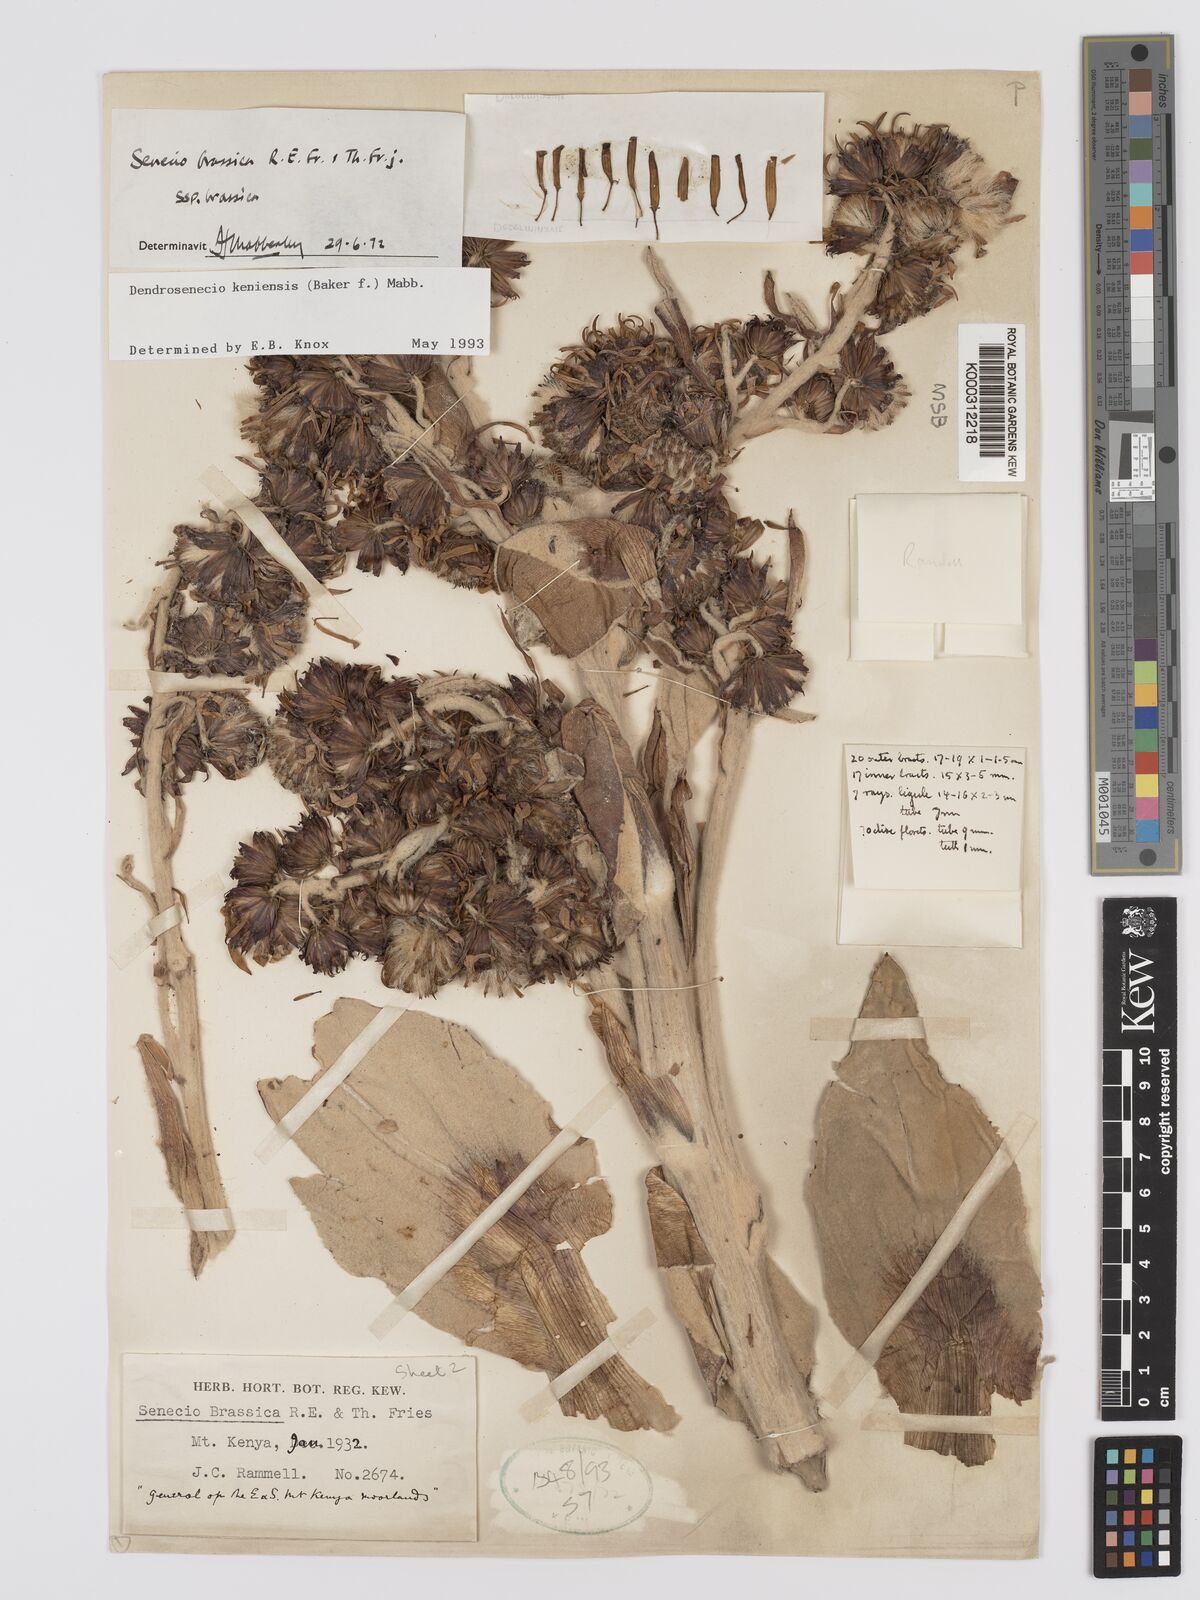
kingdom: Plantae
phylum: Tracheophyta
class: Magnoliopsida
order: Asterales
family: Asteraceae
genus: Dendrosenecio
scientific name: Dendrosenecio keniensis
